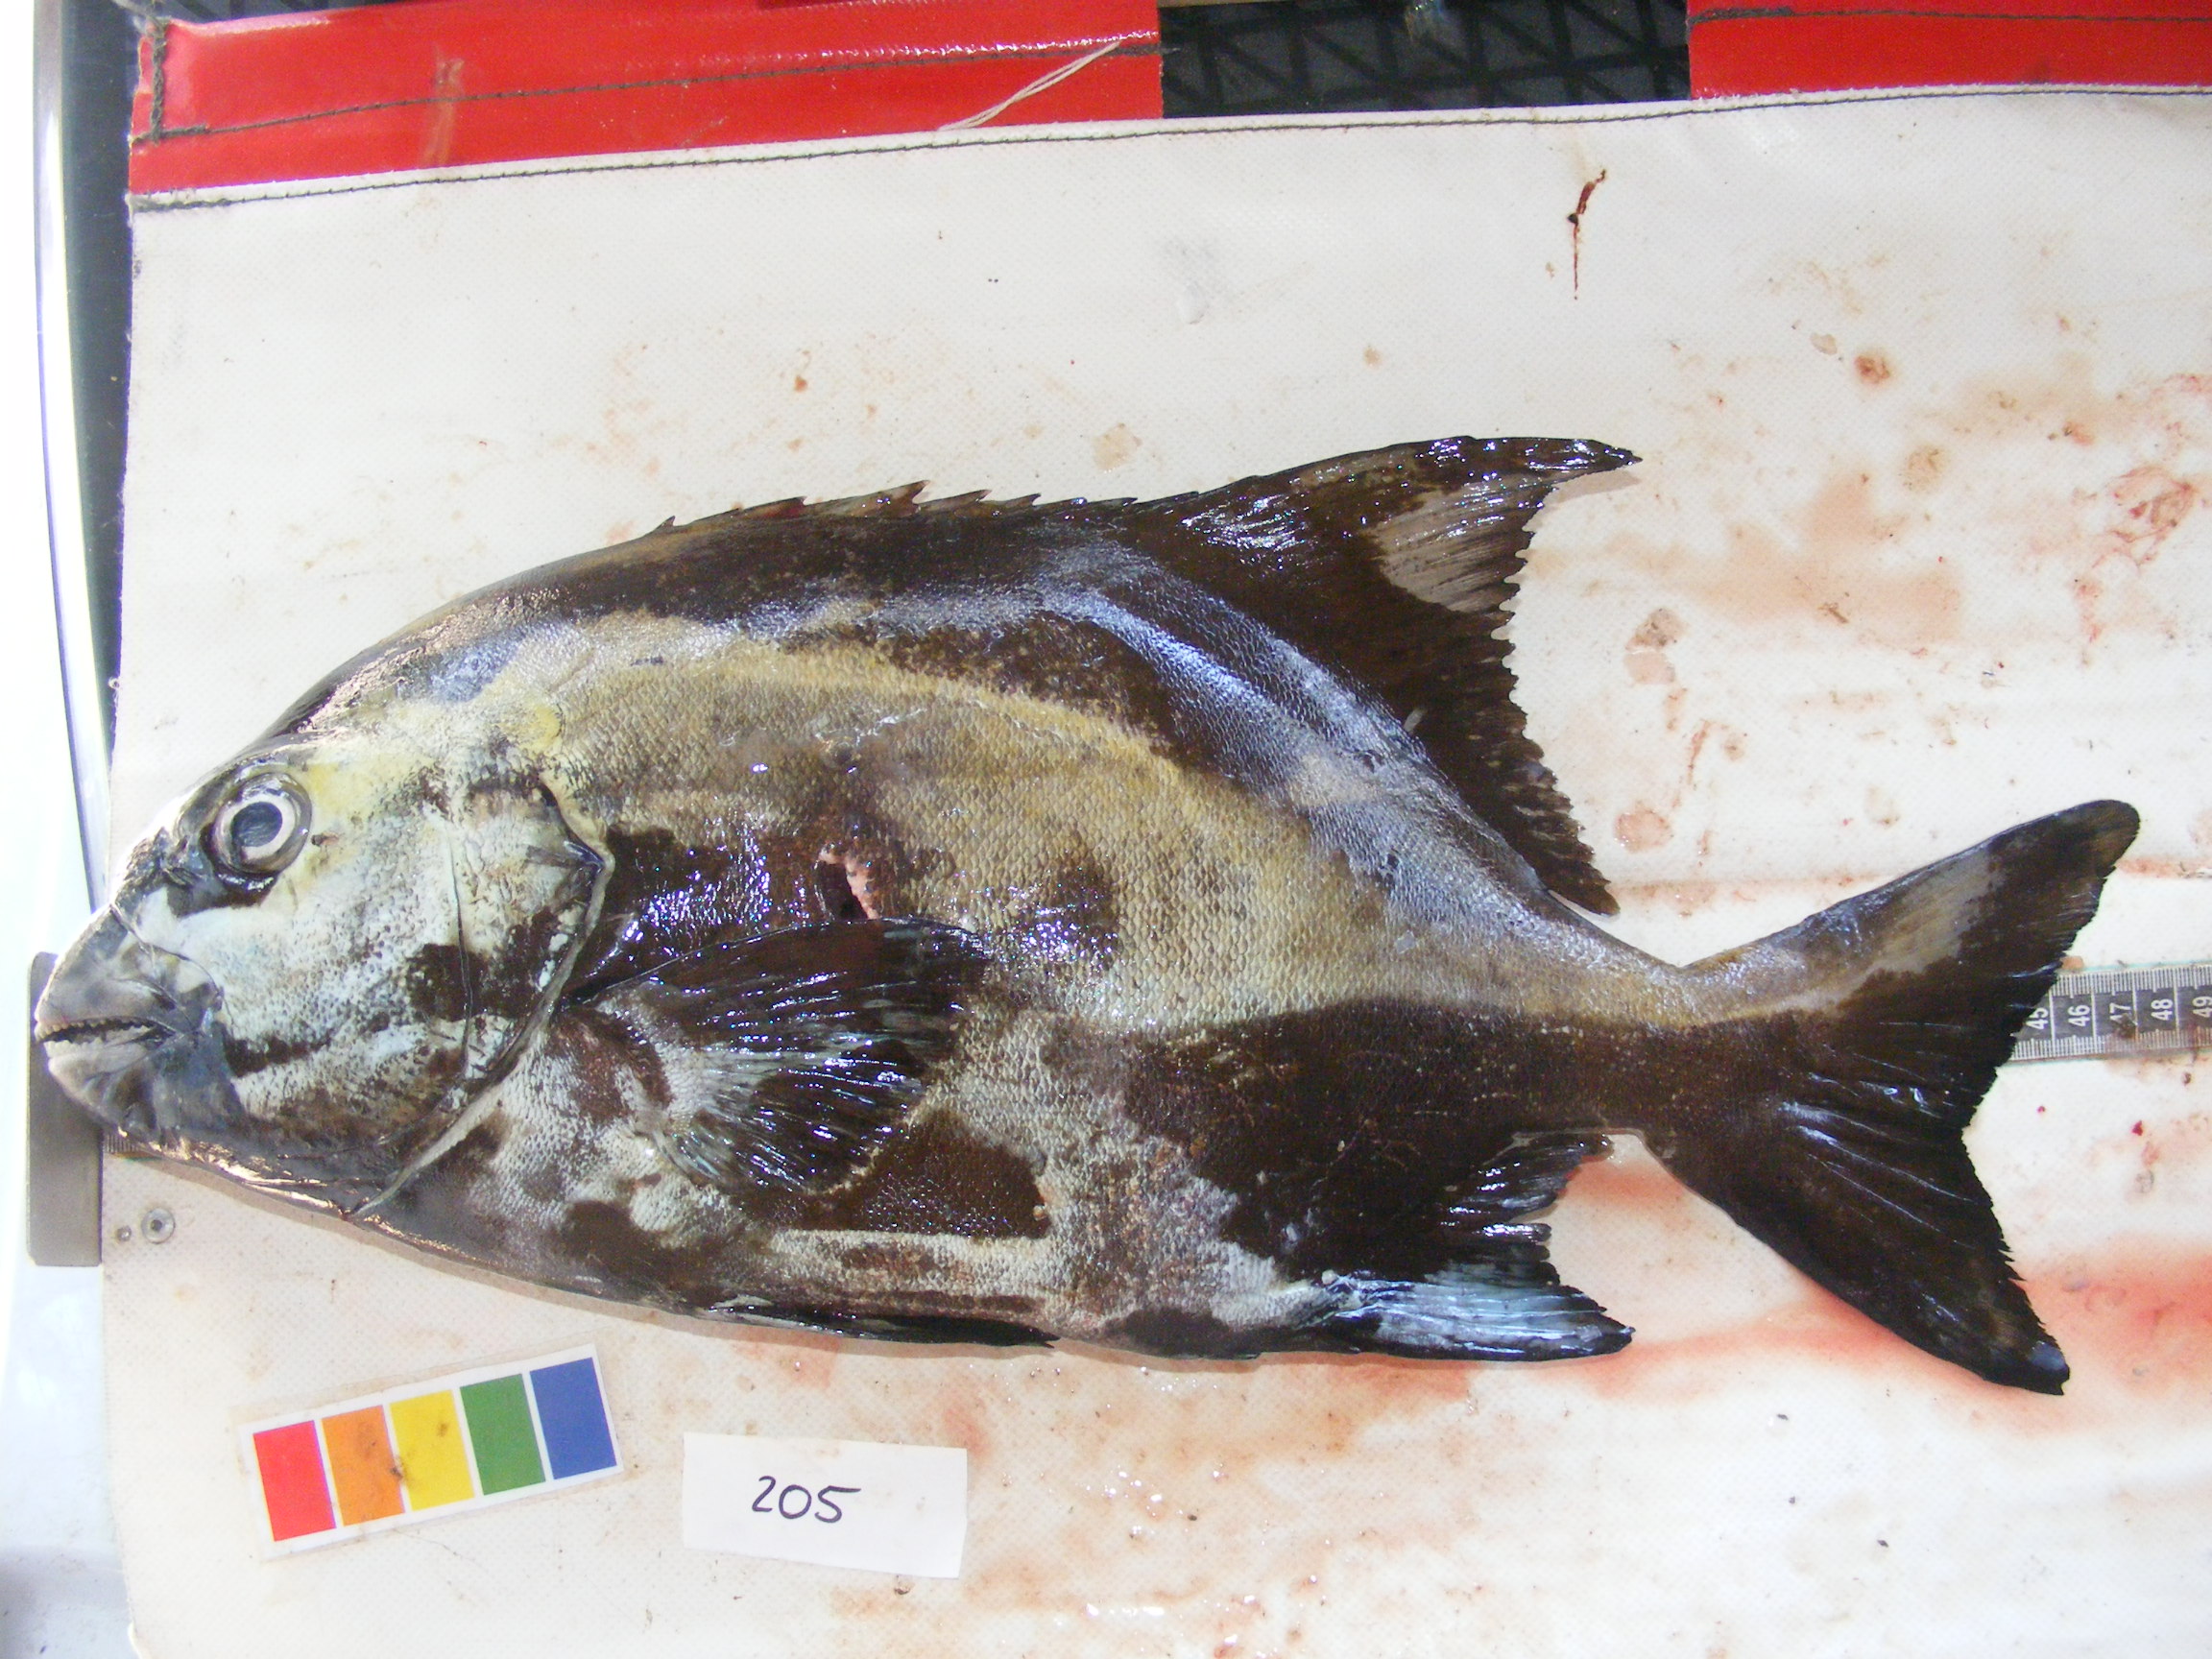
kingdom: Animalia
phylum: Chordata
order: Perciformes
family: Oplegnathidae
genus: Oplegnathus
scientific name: Oplegnathus peaolopesi
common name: Mozambique knifejaw
